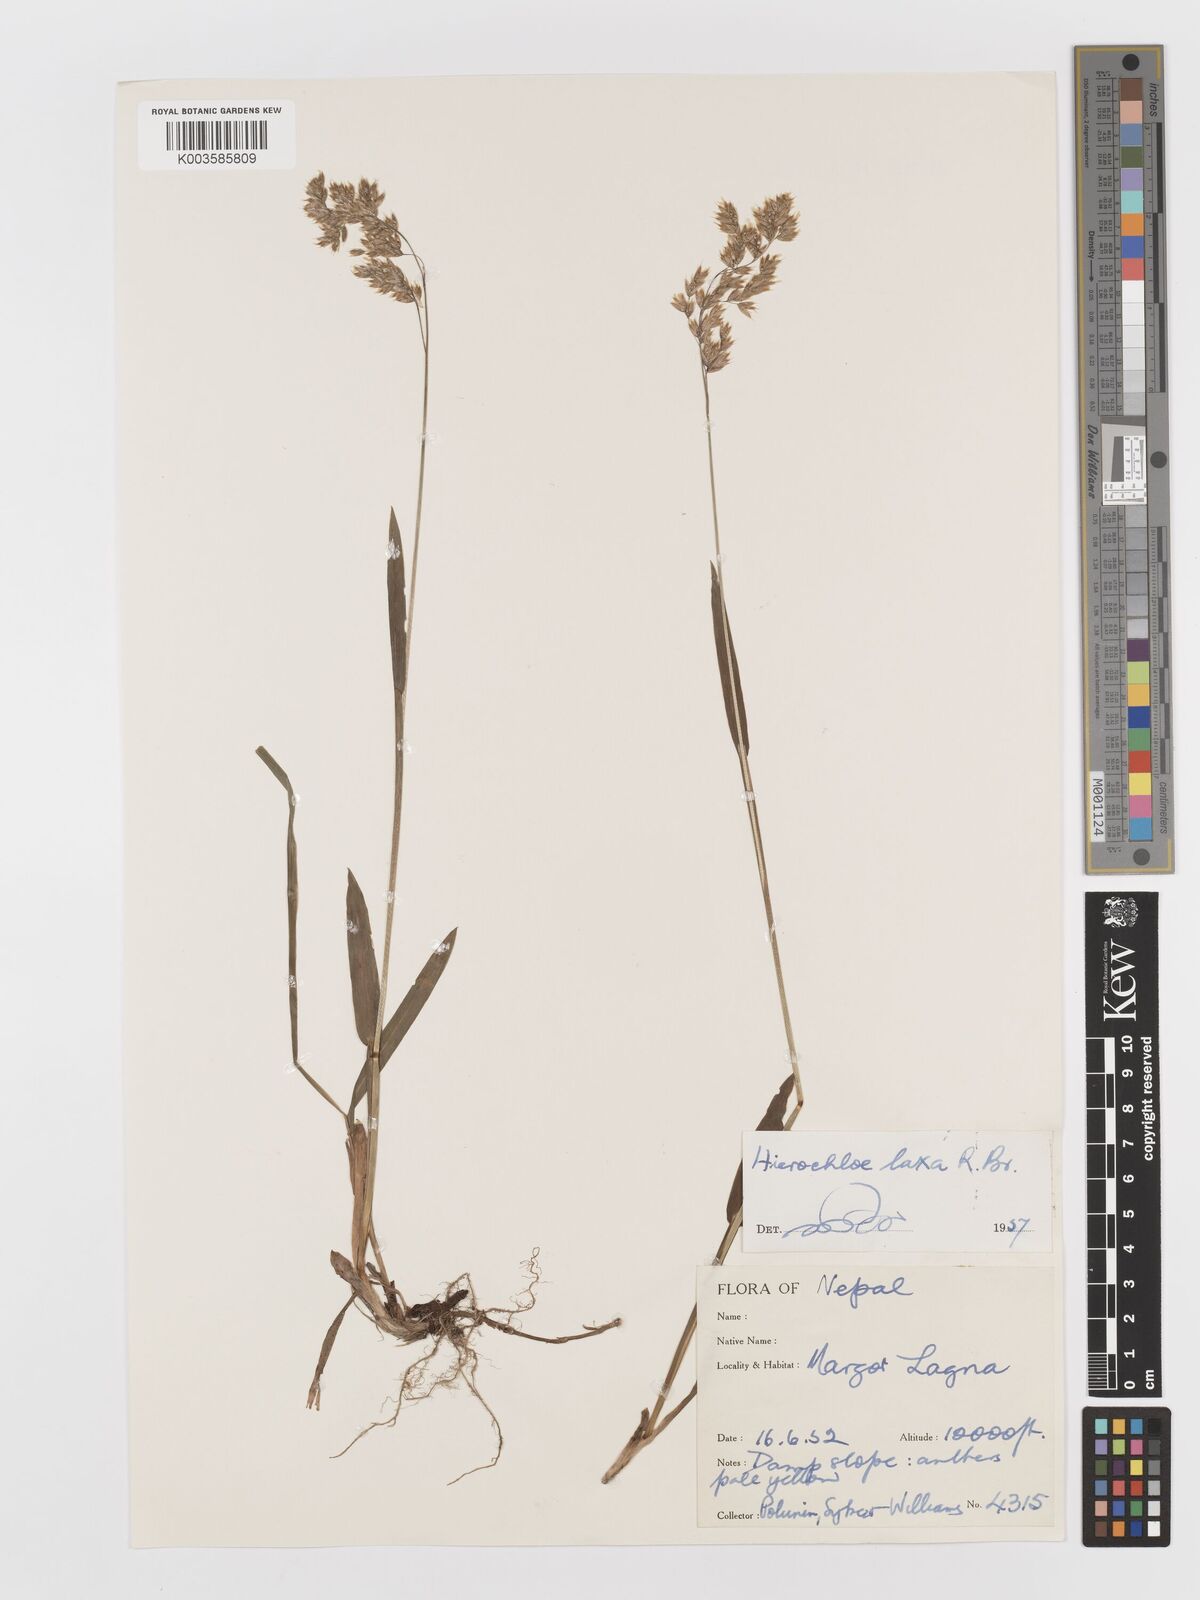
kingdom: Plantae
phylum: Tracheophyta
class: Liliopsida
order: Poales
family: Poaceae
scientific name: Poaceae
